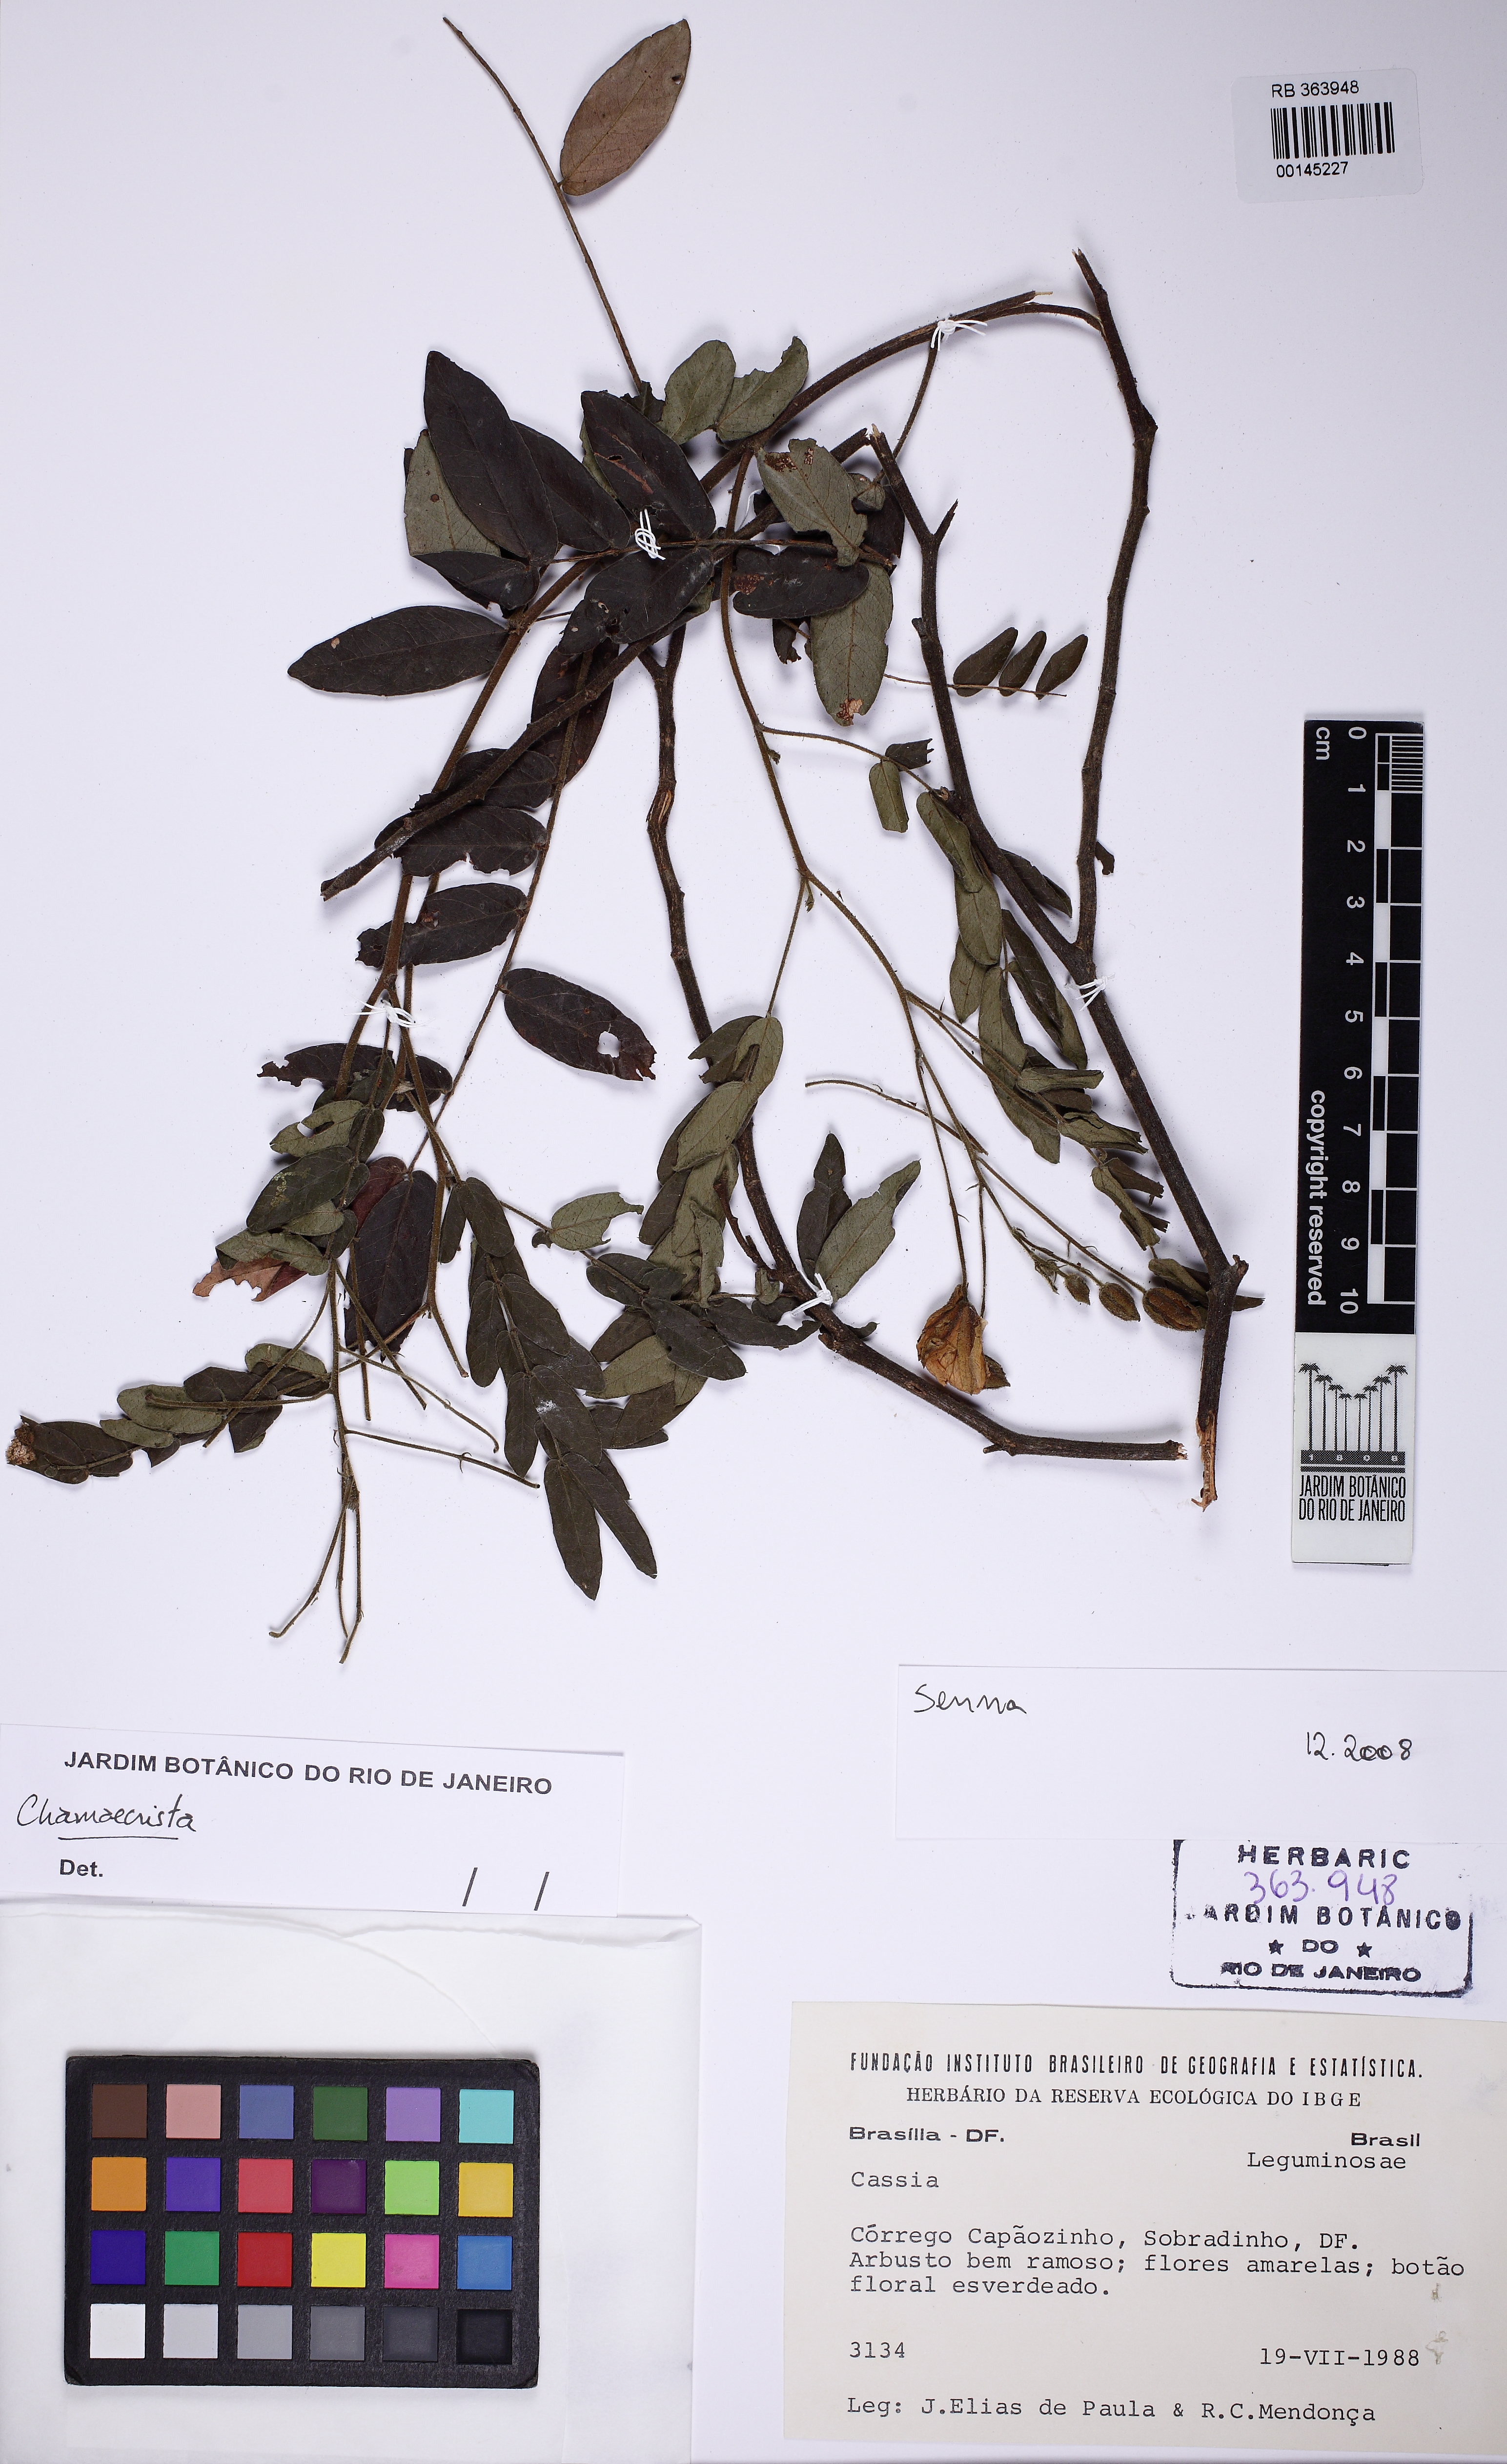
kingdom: Plantae
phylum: Tracheophyta
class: Magnoliopsida
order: Fabales
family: Fabaceae
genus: Chamaecrista
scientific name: Chamaecrista machaeriifolia
